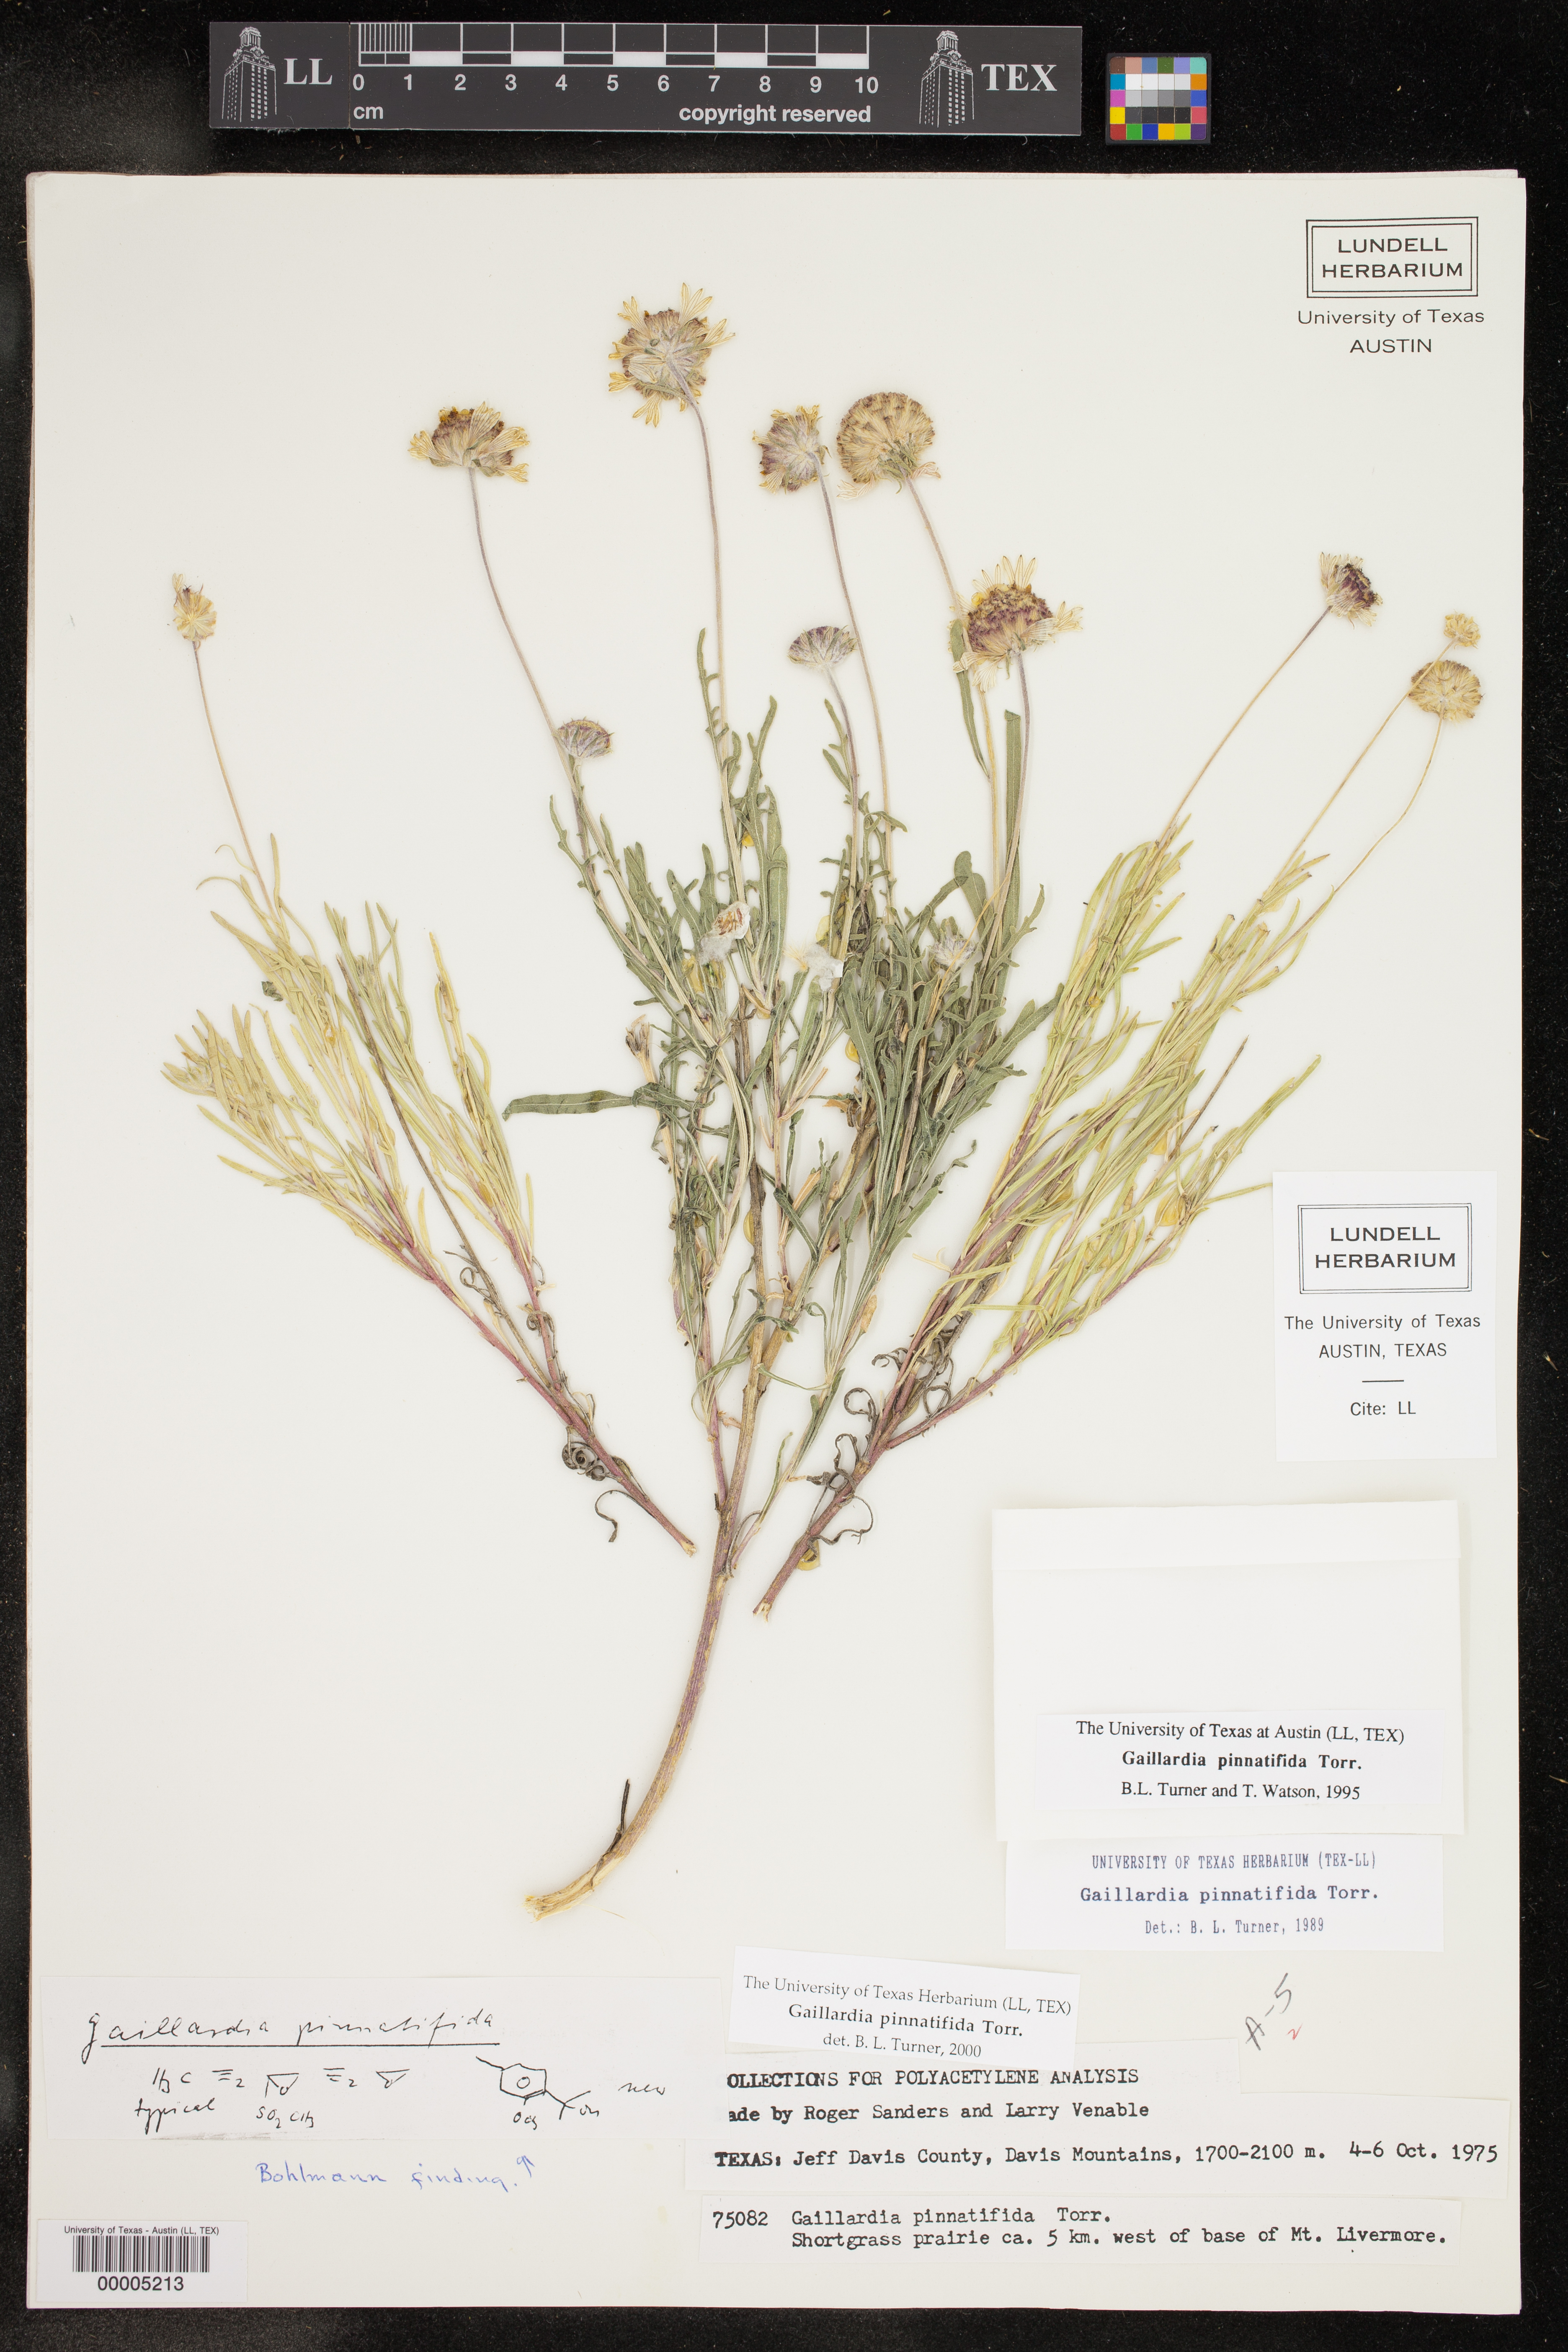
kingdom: Plantae
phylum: Tracheophyta
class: Magnoliopsida
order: Asterales
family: Asteraceae
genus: Gaillardia
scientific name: Gaillardia pinnatifida
